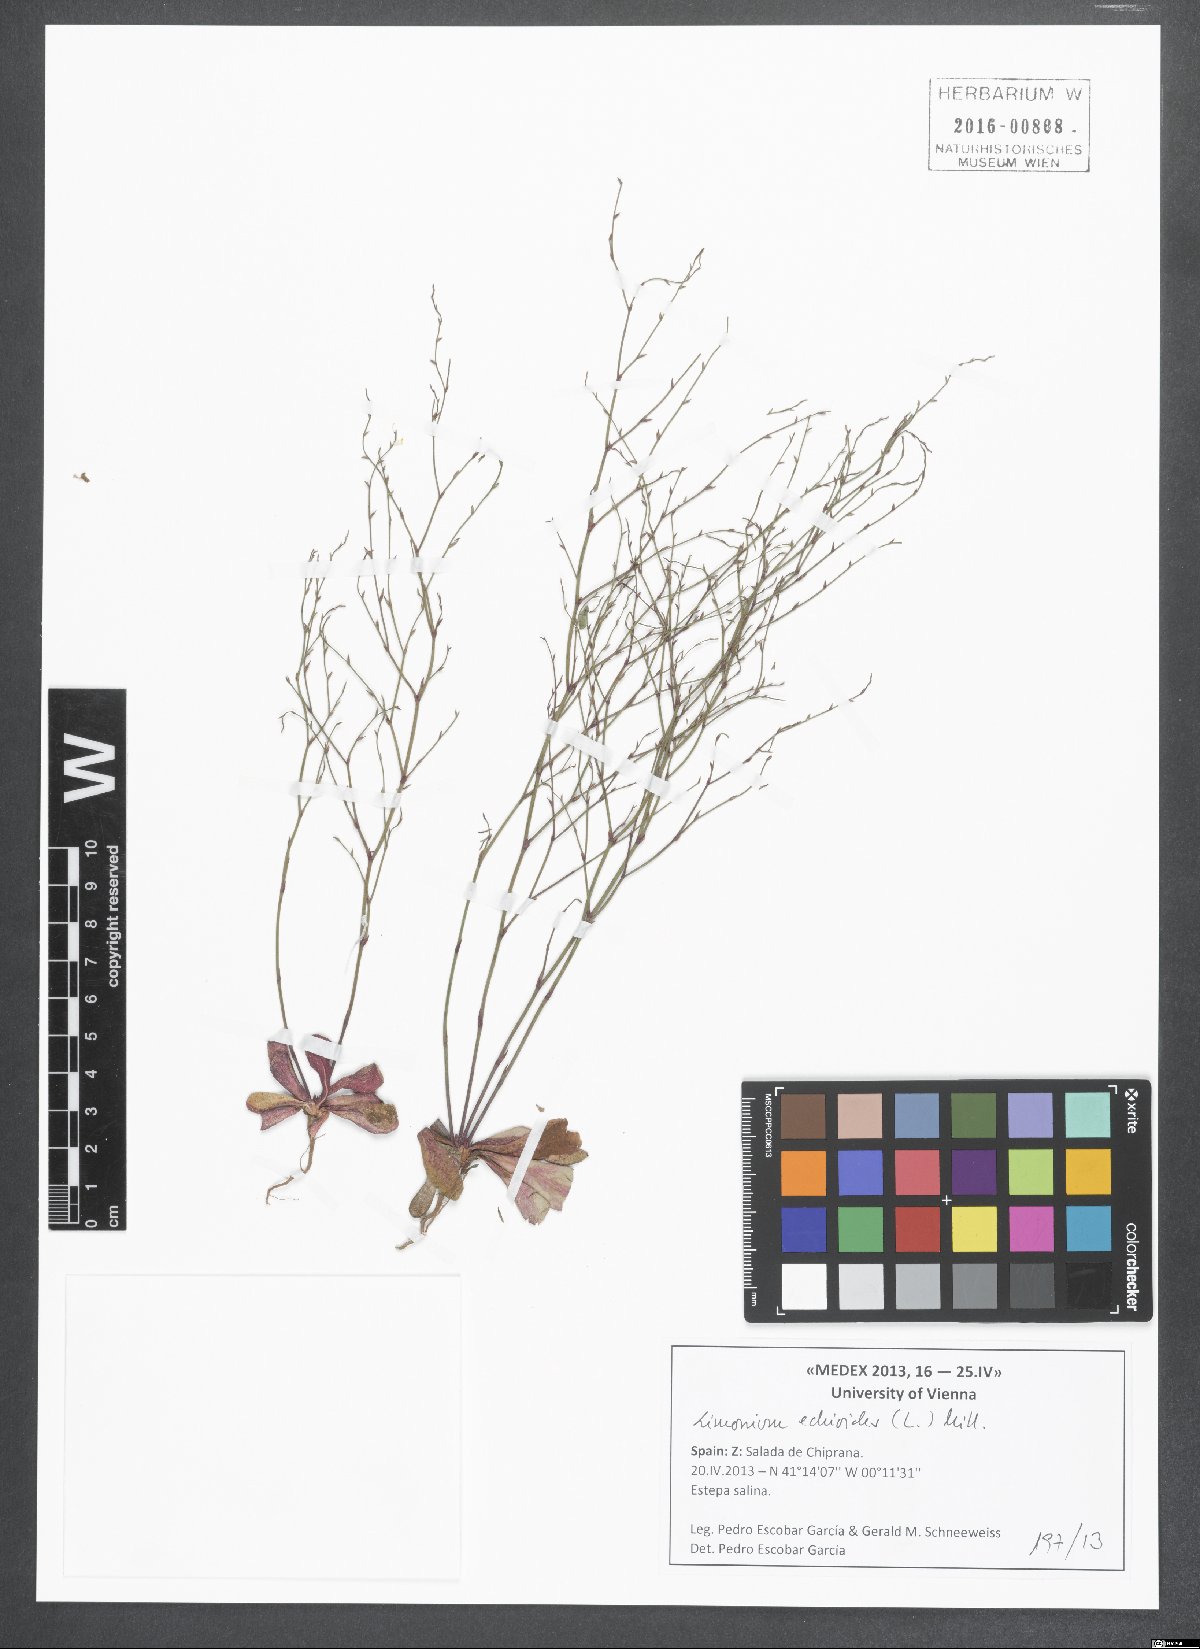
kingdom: Plantae
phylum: Tracheophyta
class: Magnoliopsida
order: Caryophyllales
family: Plumbaginaceae
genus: Limonium
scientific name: Limonium echioides
